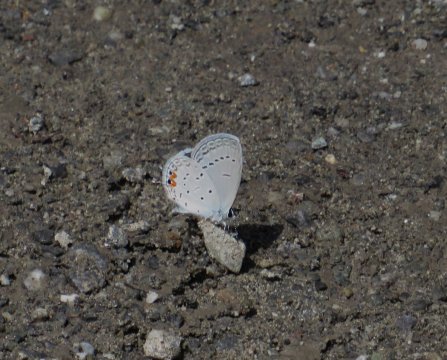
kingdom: Animalia
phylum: Arthropoda
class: Insecta
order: Lepidoptera
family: Lycaenidae
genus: Elkalyce
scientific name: Elkalyce comyntas
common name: Eastern Tailed-Blue
